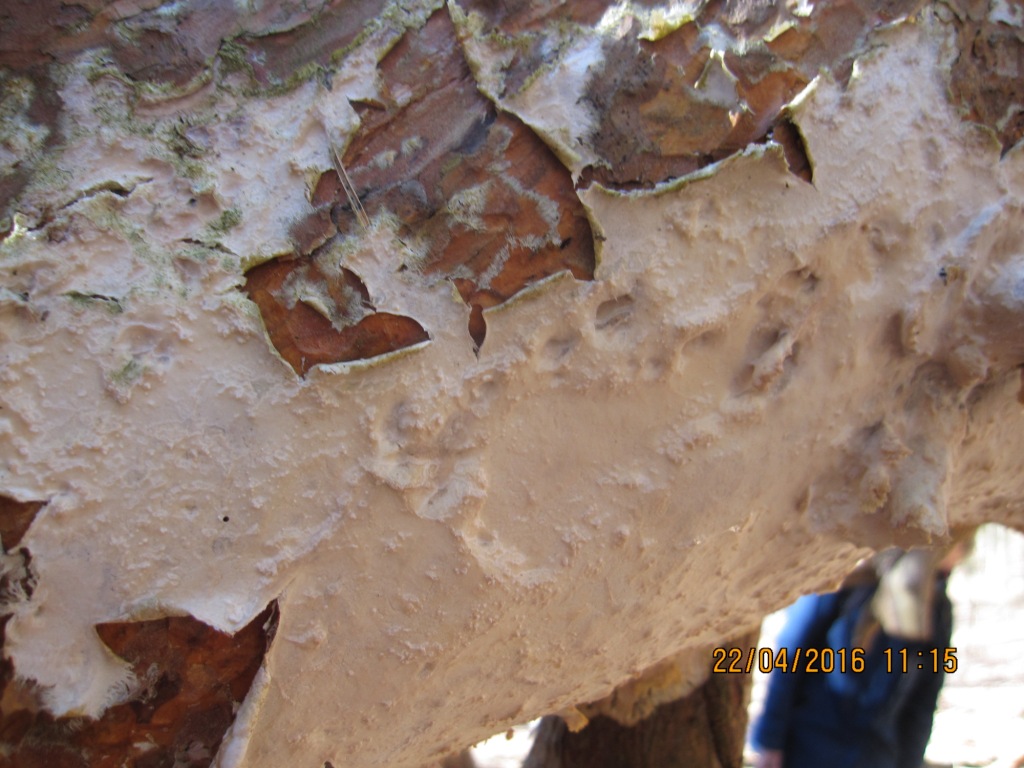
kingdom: Fungi
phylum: Basidiomycota
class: Agaricomycetes
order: Polyporales
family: Phanerochaetaceae
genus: Phlebiopsis
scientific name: Phlebiopsis gigantea
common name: kæmpebarksvamp
